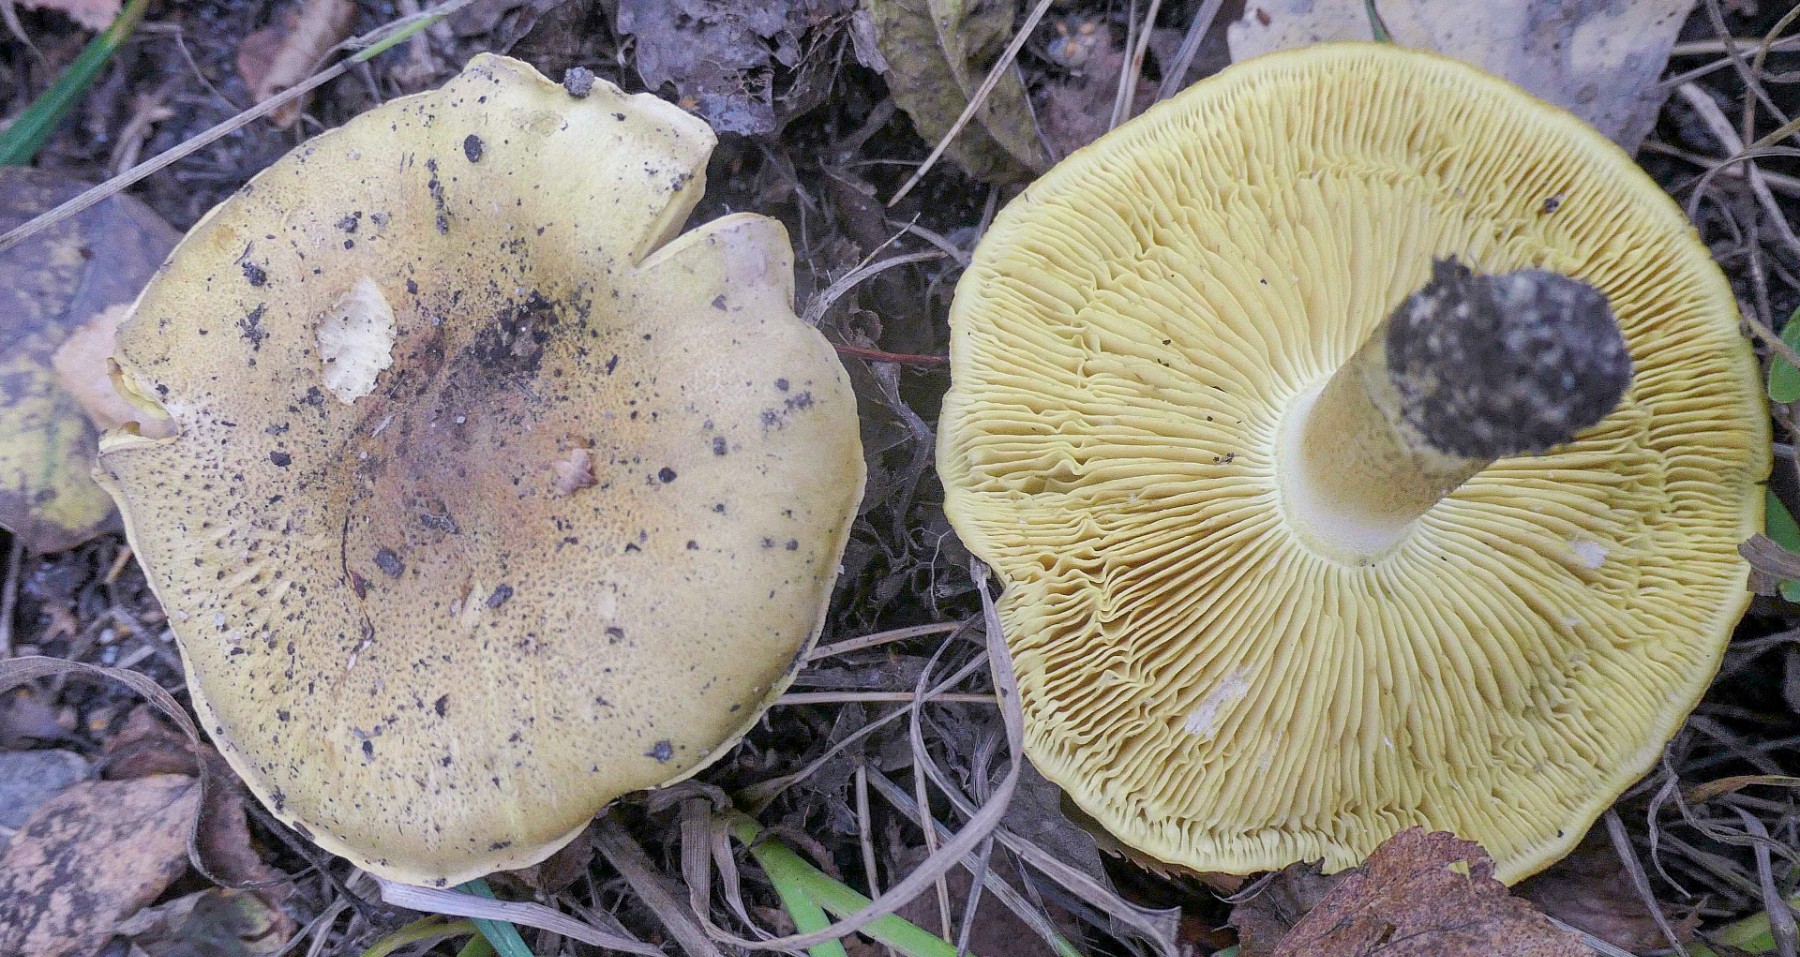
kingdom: Fungi
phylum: Basidiomycota
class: Agaricomycetes
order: Agaricales
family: Tricholomataceae
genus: Tricholoma
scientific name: Tricholoma frondosae
